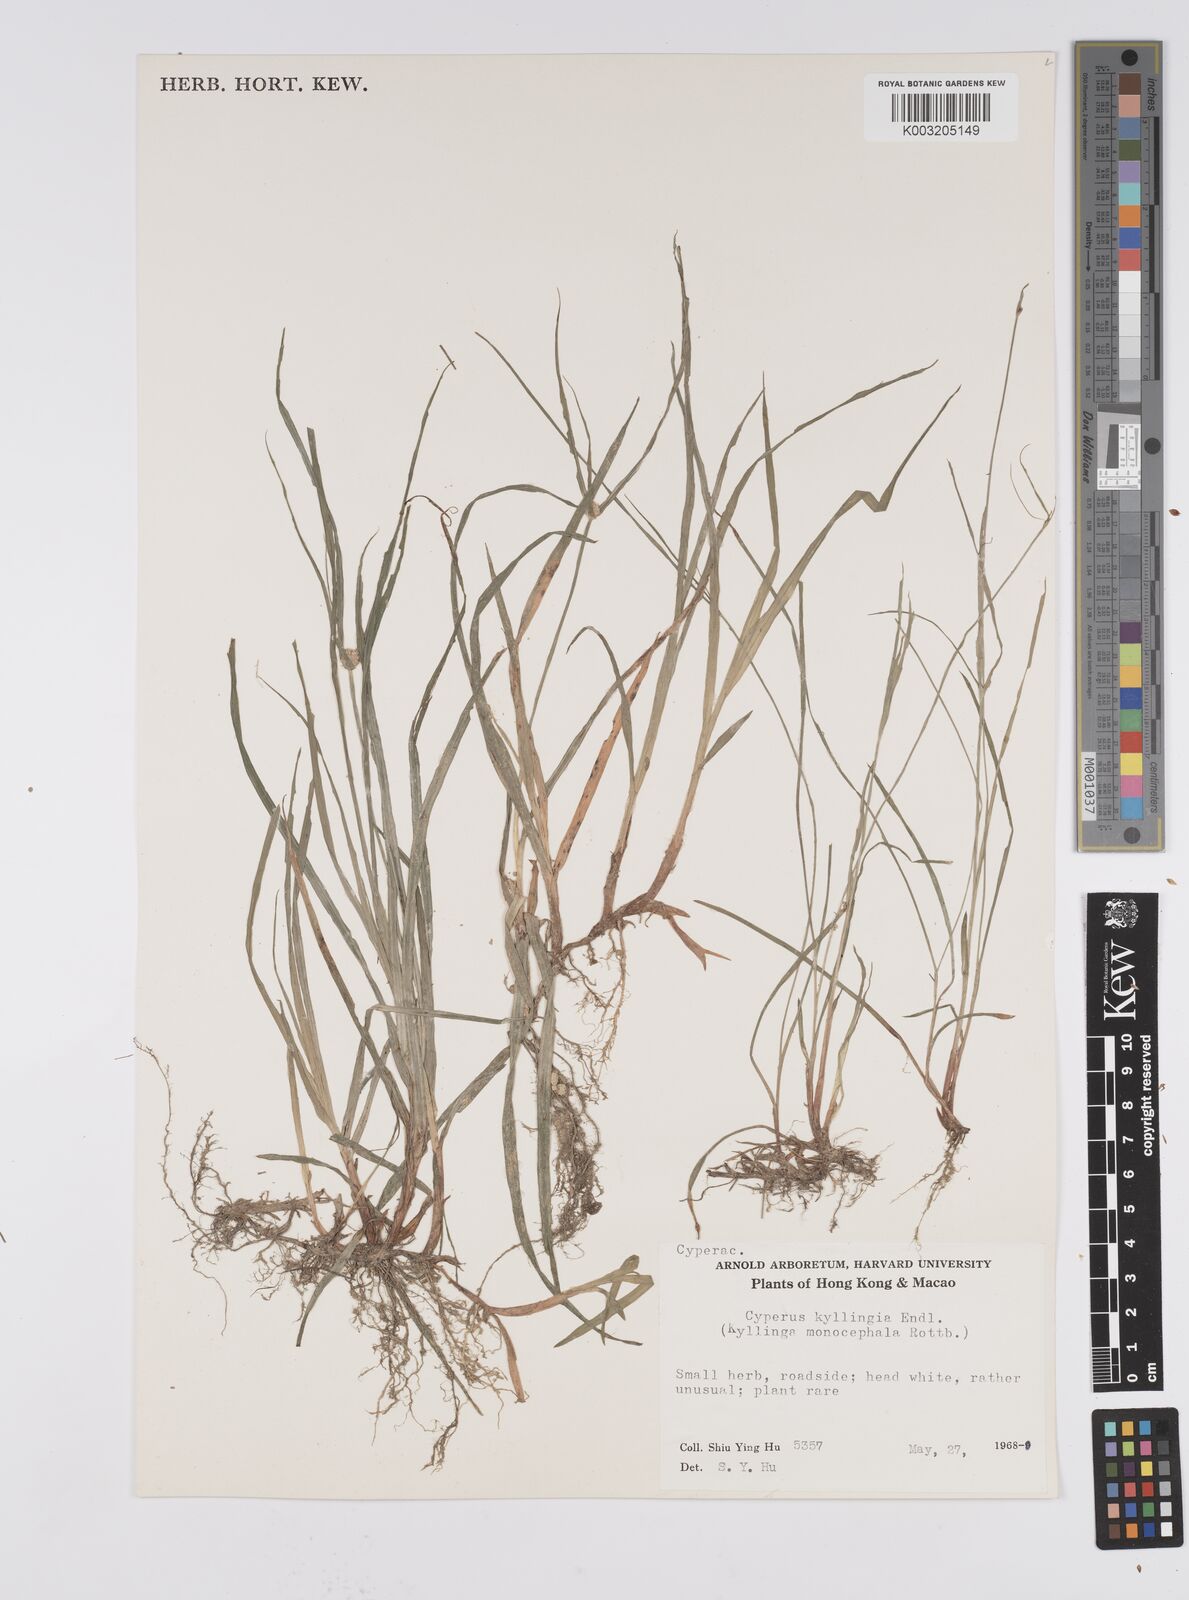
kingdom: Plantae
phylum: Tracheophyta
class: Liliopsida
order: Poales
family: Cyperaceae
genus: Cyperus
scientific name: Cyperus nemoralis
